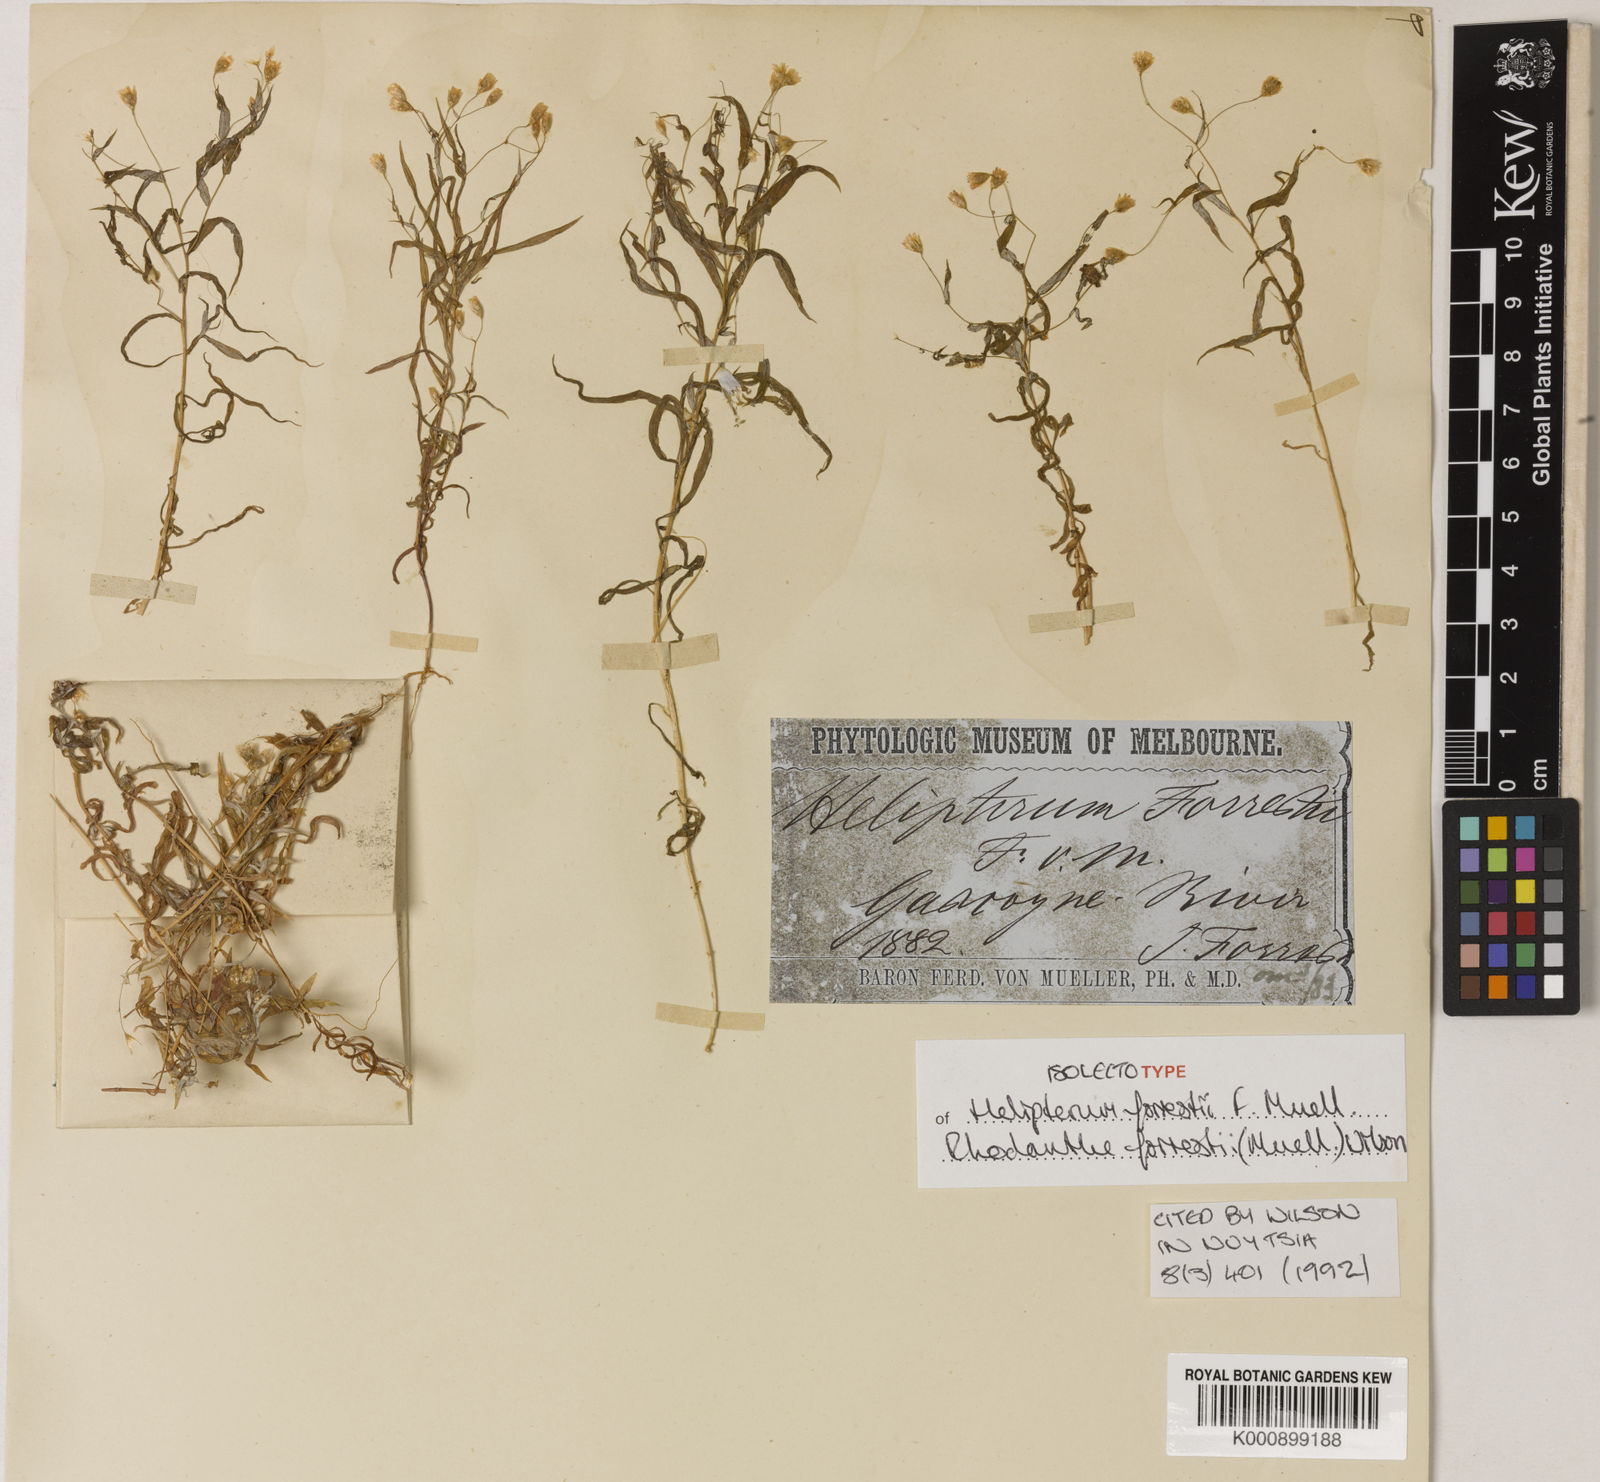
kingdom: Plantae
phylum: Tracheophyta
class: Magnoliopsida
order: Asterales
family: Asteraceae
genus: Rhodanthe
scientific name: Rhodanthe forrestii
